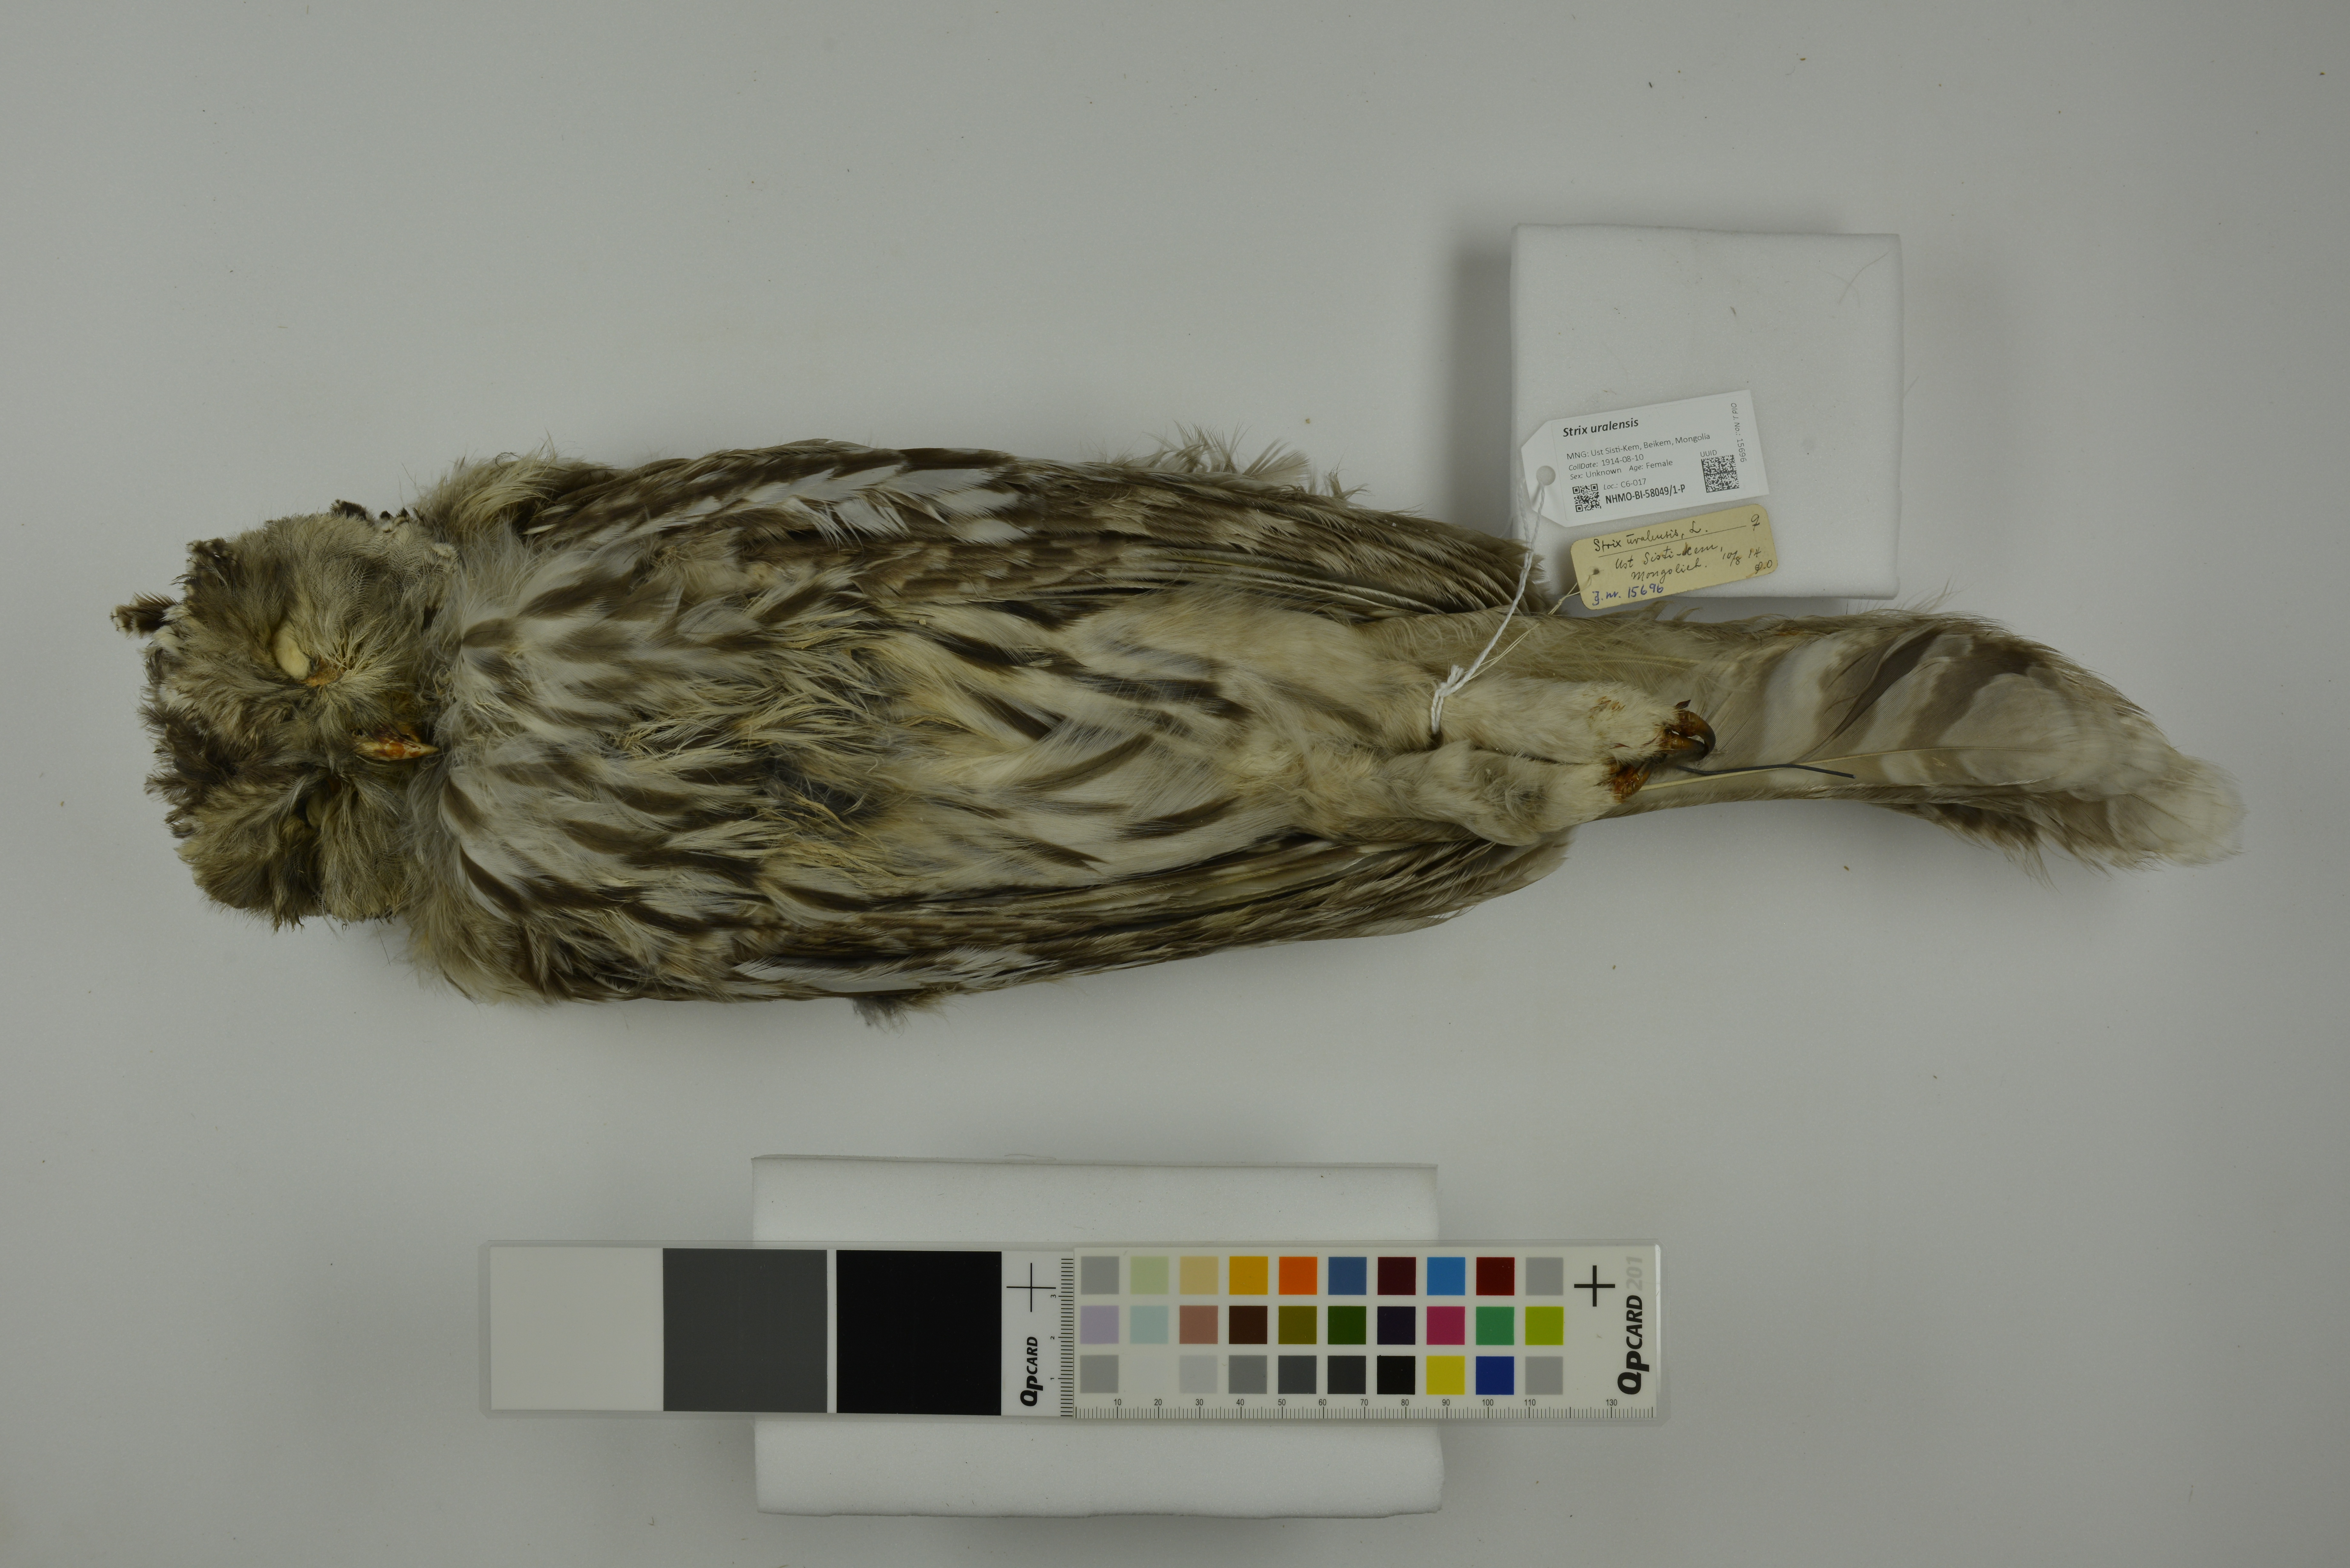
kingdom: Animalia
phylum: Chordata
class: Aves
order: Strigiformes
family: Strigidae
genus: Strix
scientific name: Strix uralensis
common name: Ural owl
